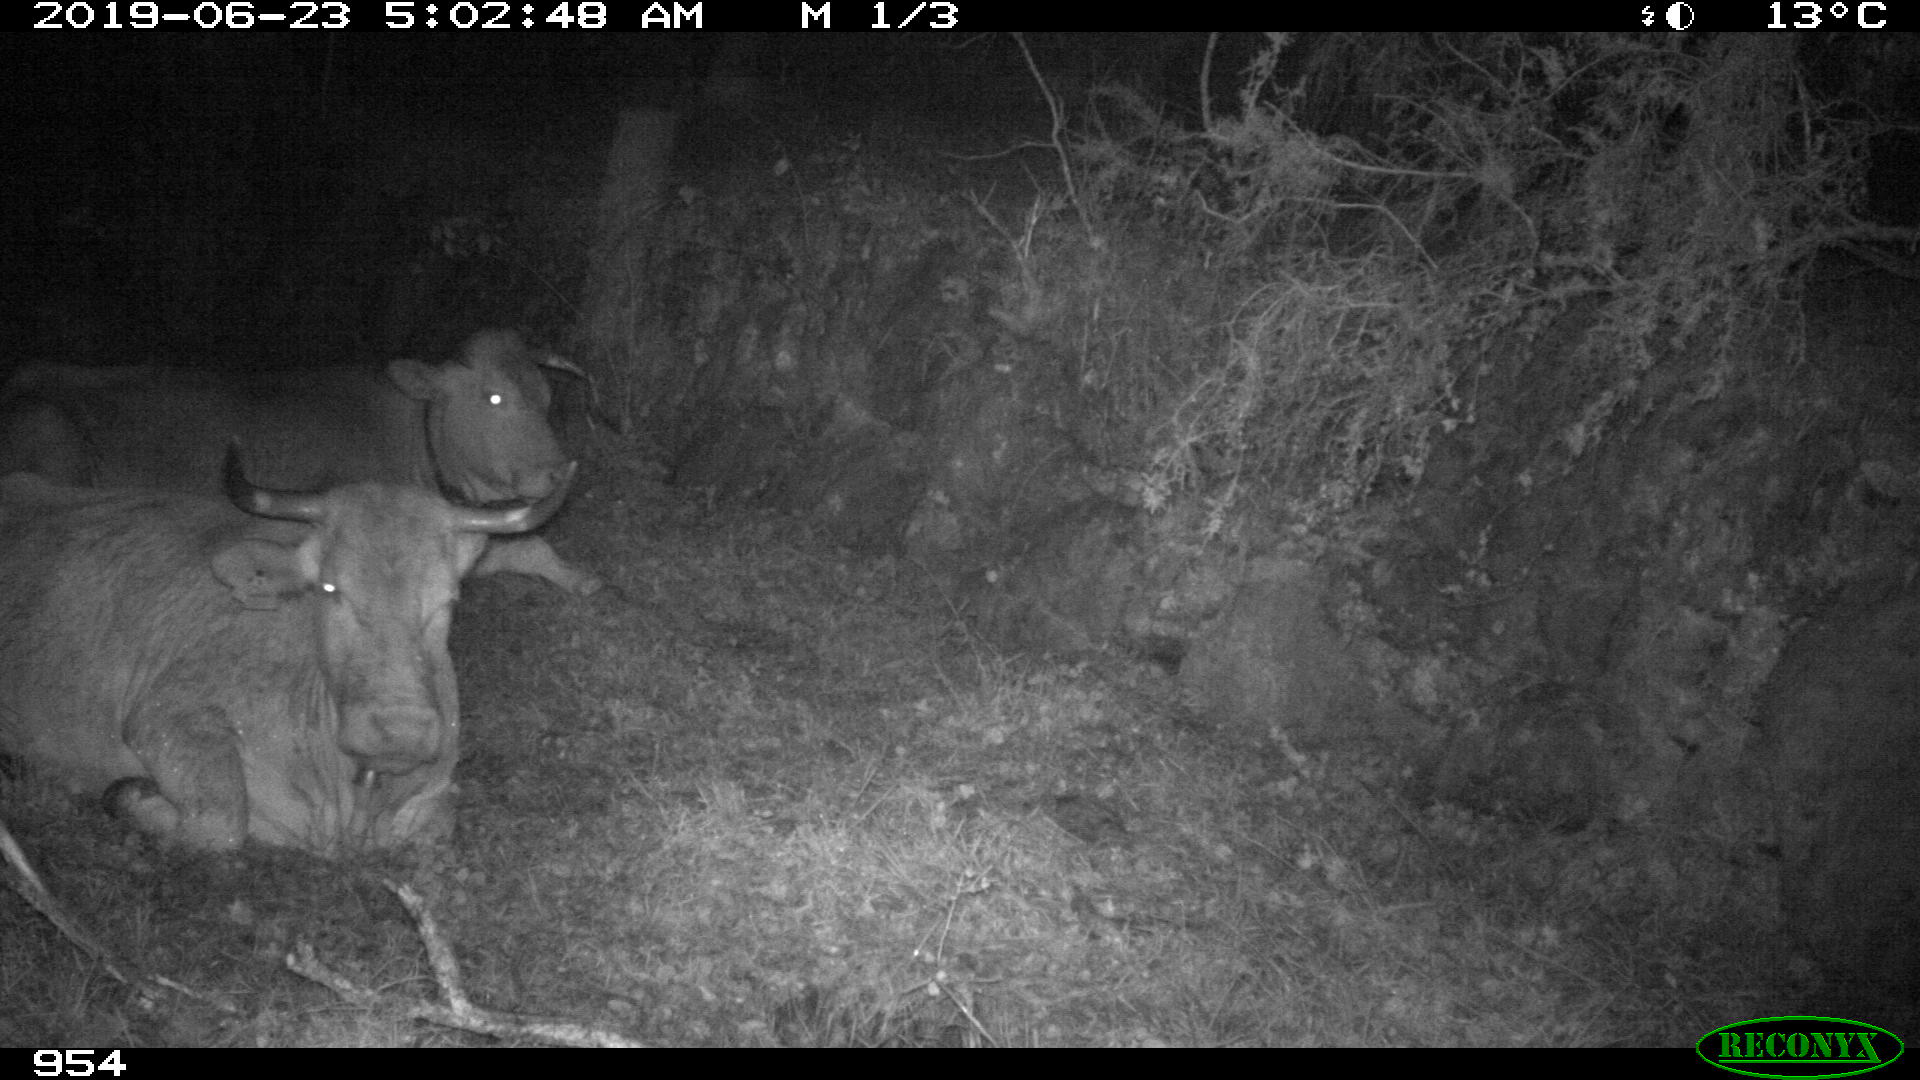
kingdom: Animalia
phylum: Chordata
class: Mammalia
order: Artiodactyla
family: Bovidae
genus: Bos
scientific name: Bos taurus
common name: Domesticated cattle
